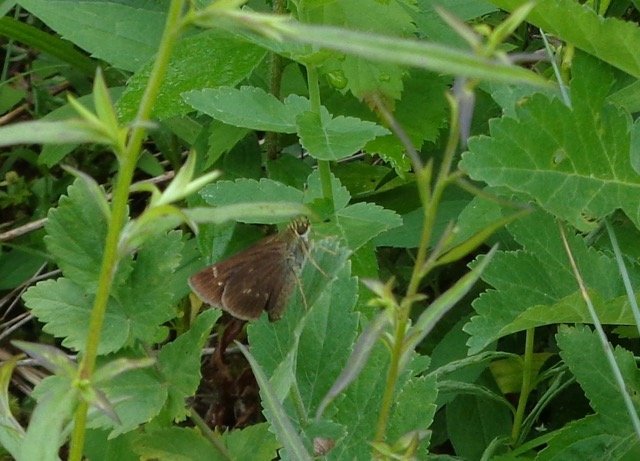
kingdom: Animalia
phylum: Arthropoda
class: Insecta
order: Lepidoptera
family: Hesperiidae
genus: Vernia
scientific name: Vernia verna
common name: Little Glassywing
